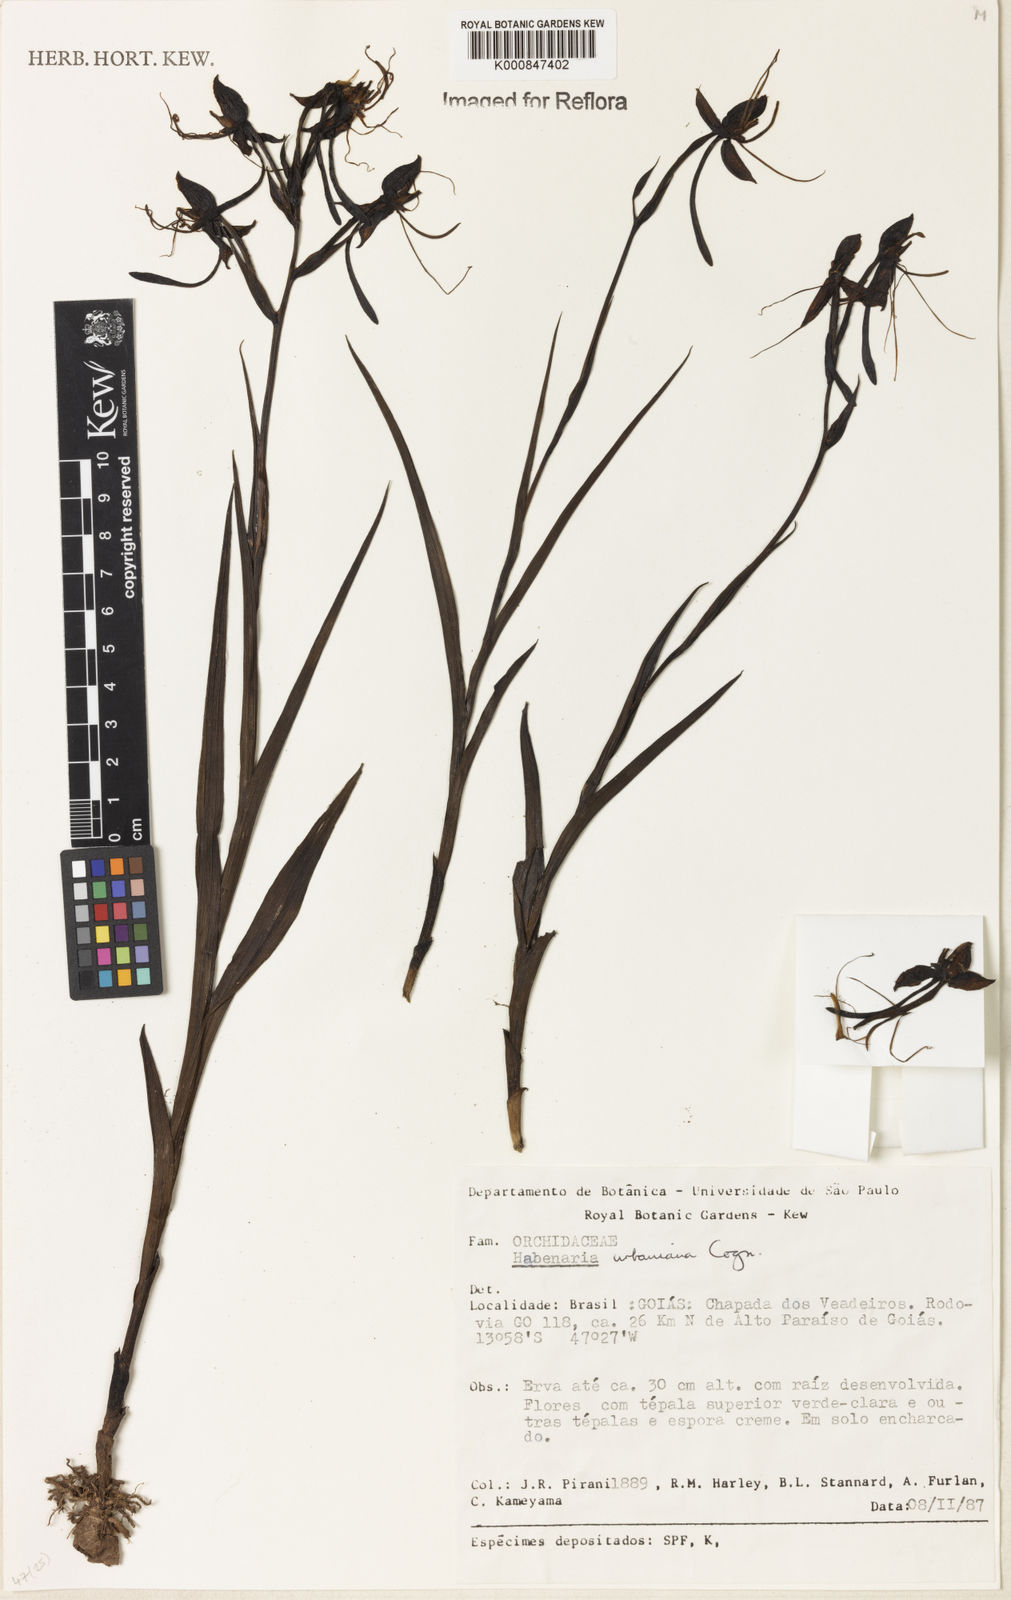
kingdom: Plantae
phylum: Tracheophyta
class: Liliopsida
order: Asparagales
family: Orchidaceae
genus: Habenaria
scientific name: Habenaria urbaniana
